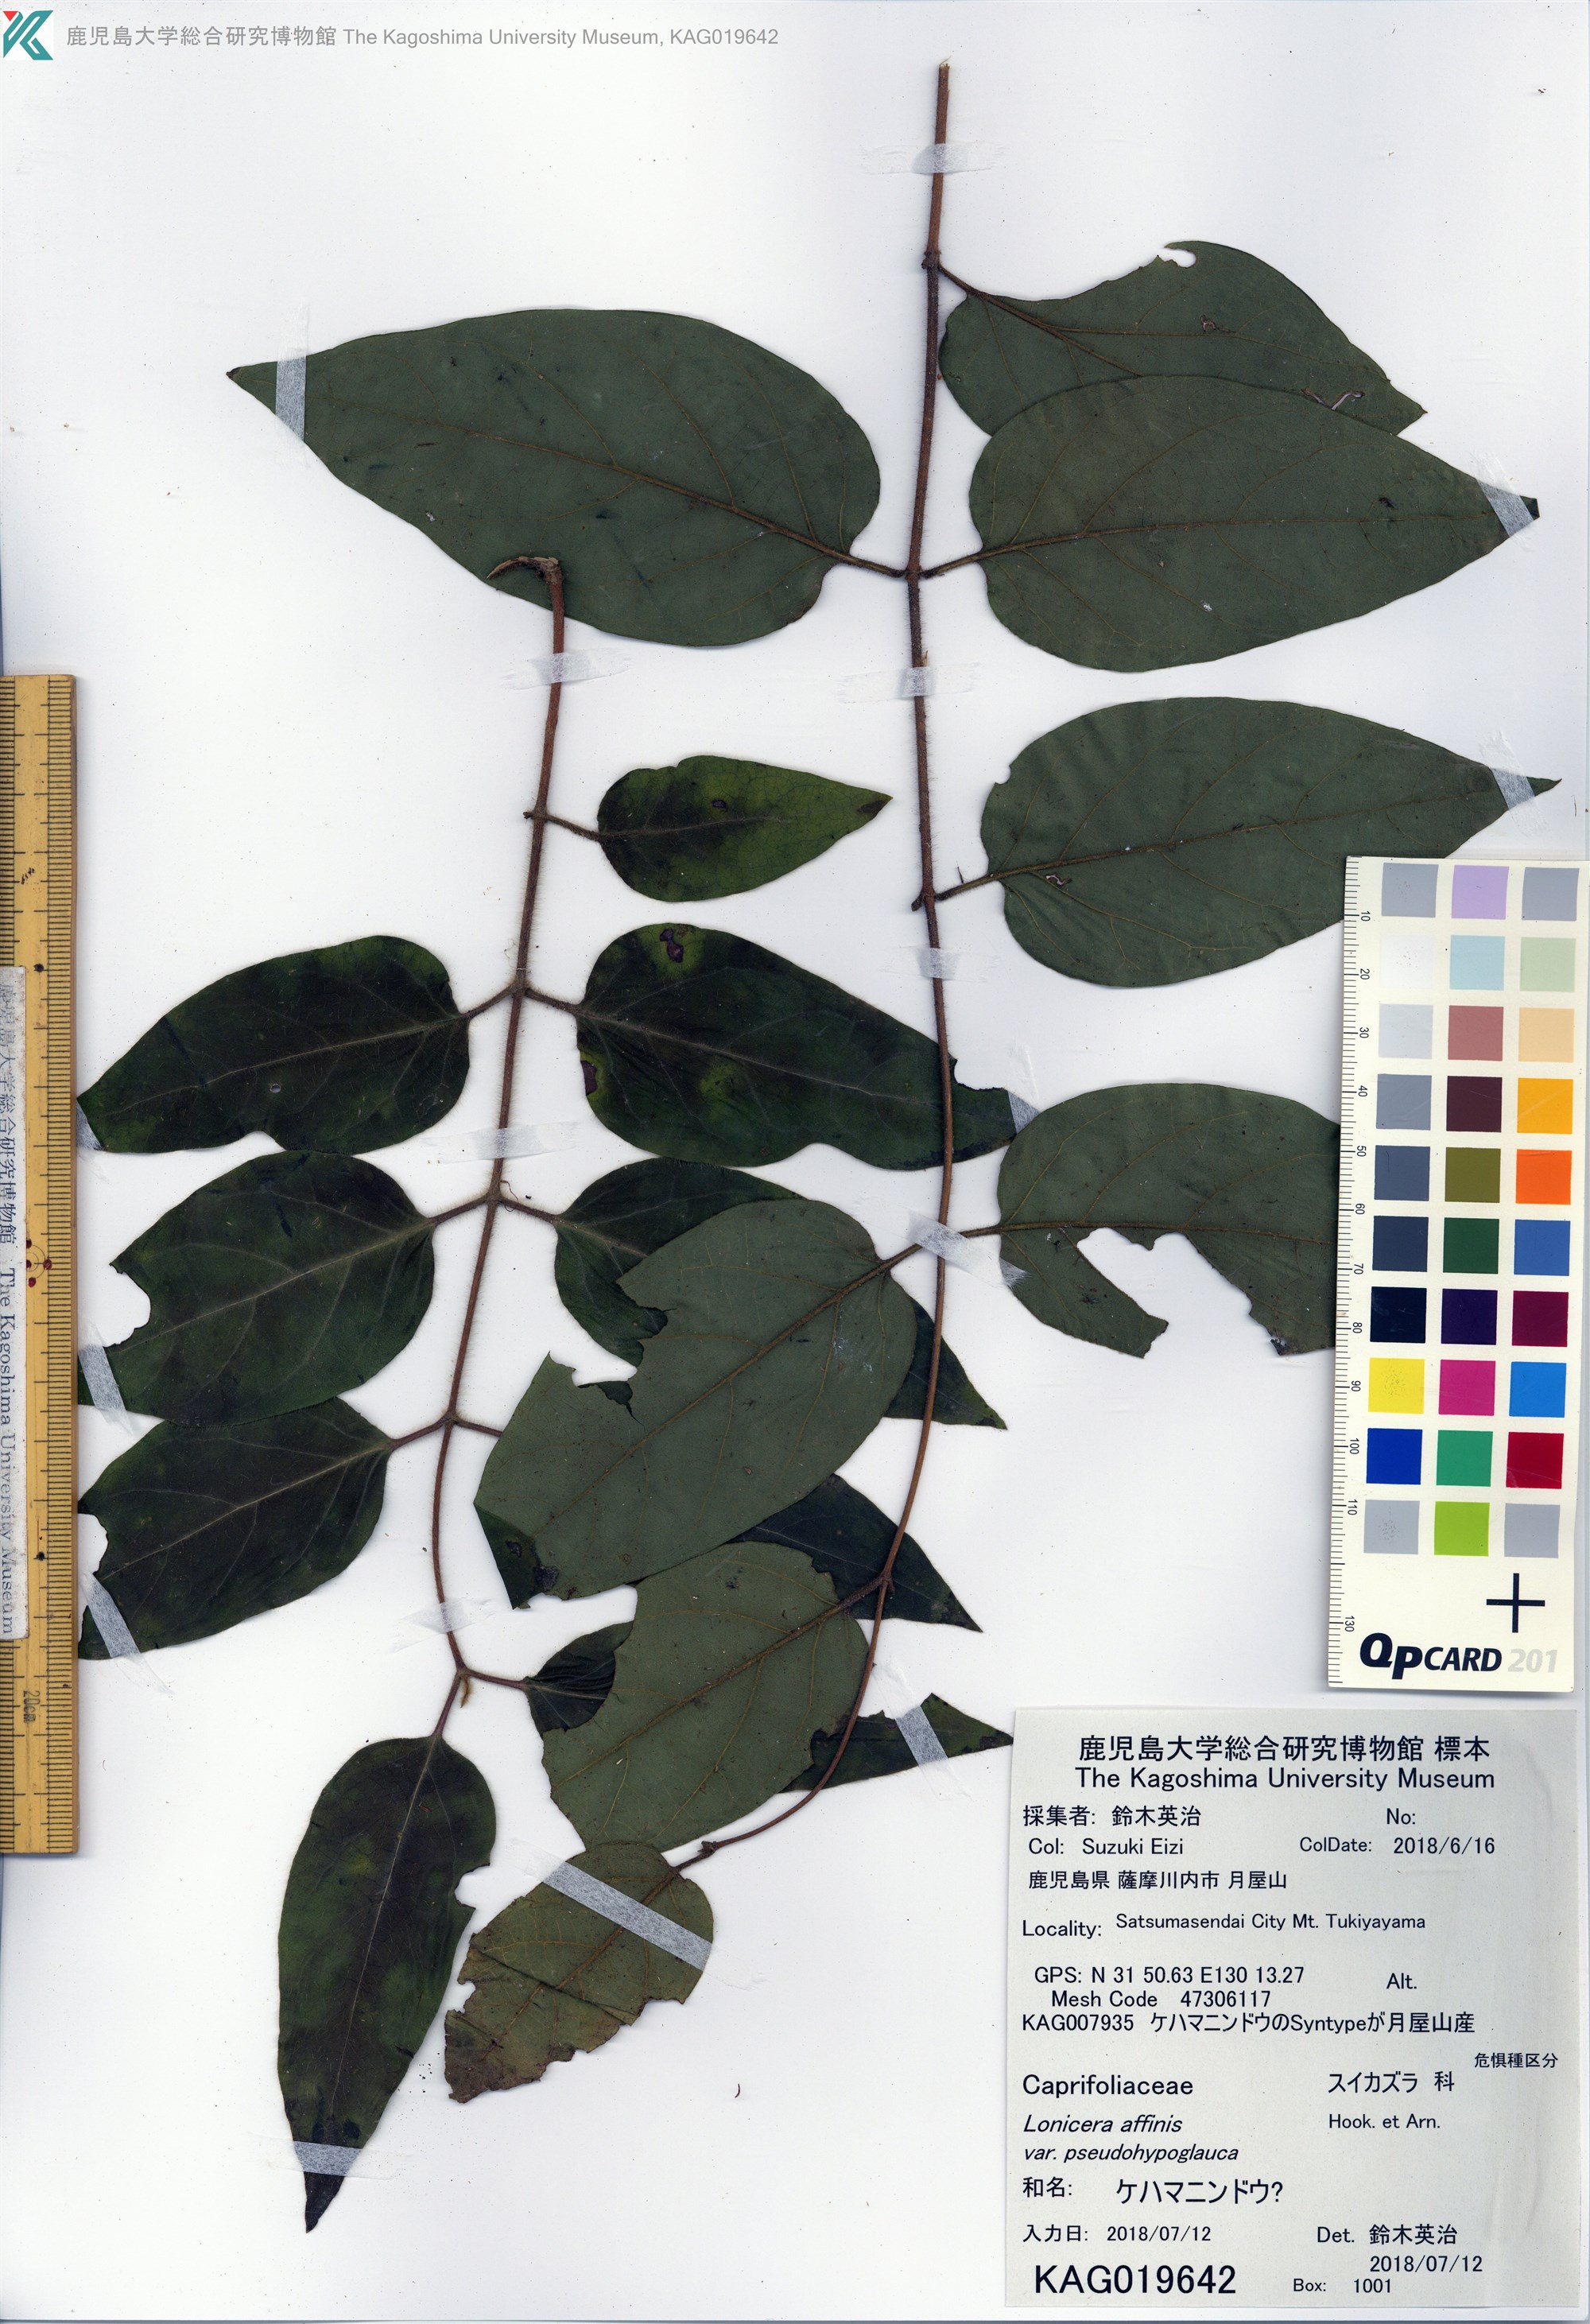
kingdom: Plantae
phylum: Tracheophyta
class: Magnoliopsida
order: Dipsacales
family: Caprifoliaceae
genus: Lonicera
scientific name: Lonicera affinis
